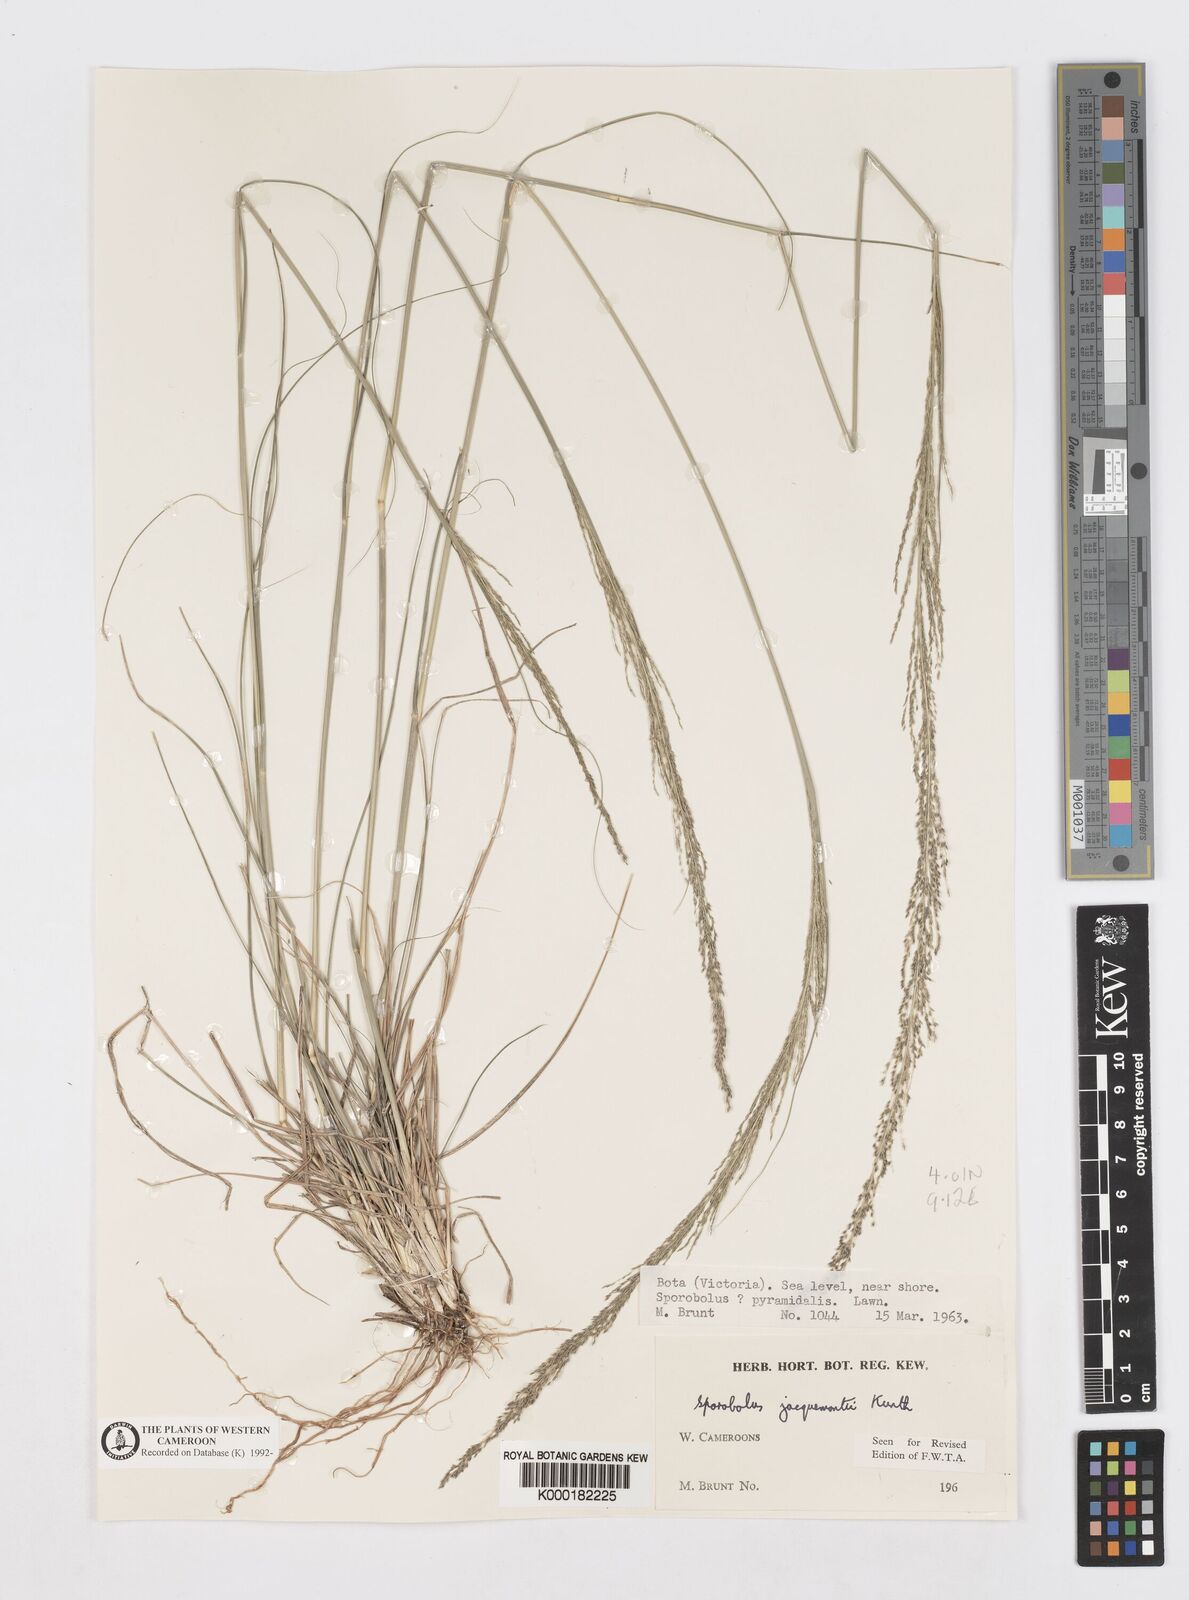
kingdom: Plantae
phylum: Tracheophyta
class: Liliopsida
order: Poales
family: Poaceae
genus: Sporobolus
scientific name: Sporobolus pyramidalis
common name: West indian dropseed
